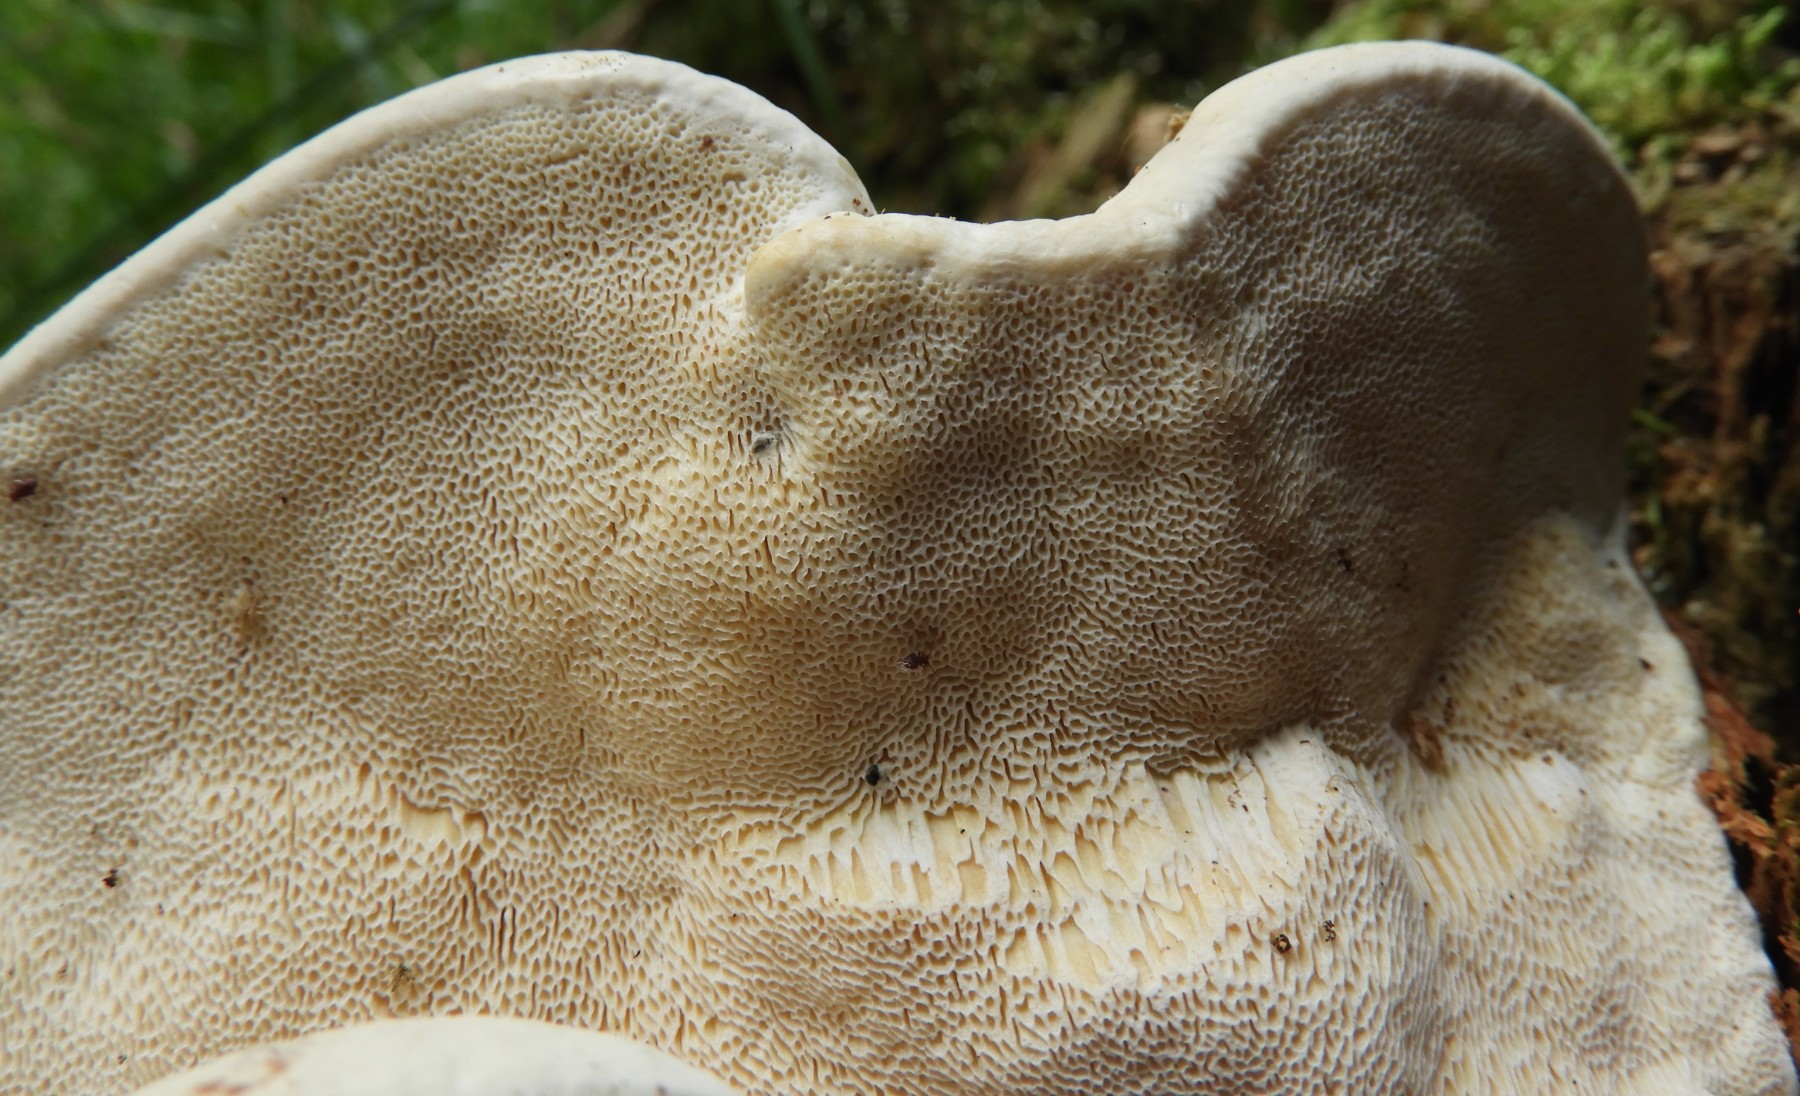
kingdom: Fungi
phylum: Basidiomycota
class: Agaricomycetes
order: Russulales
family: Bondarzewiaceae
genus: Heterobasidion
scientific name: Heterobasidion annosum
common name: almindelig rodfordærver
